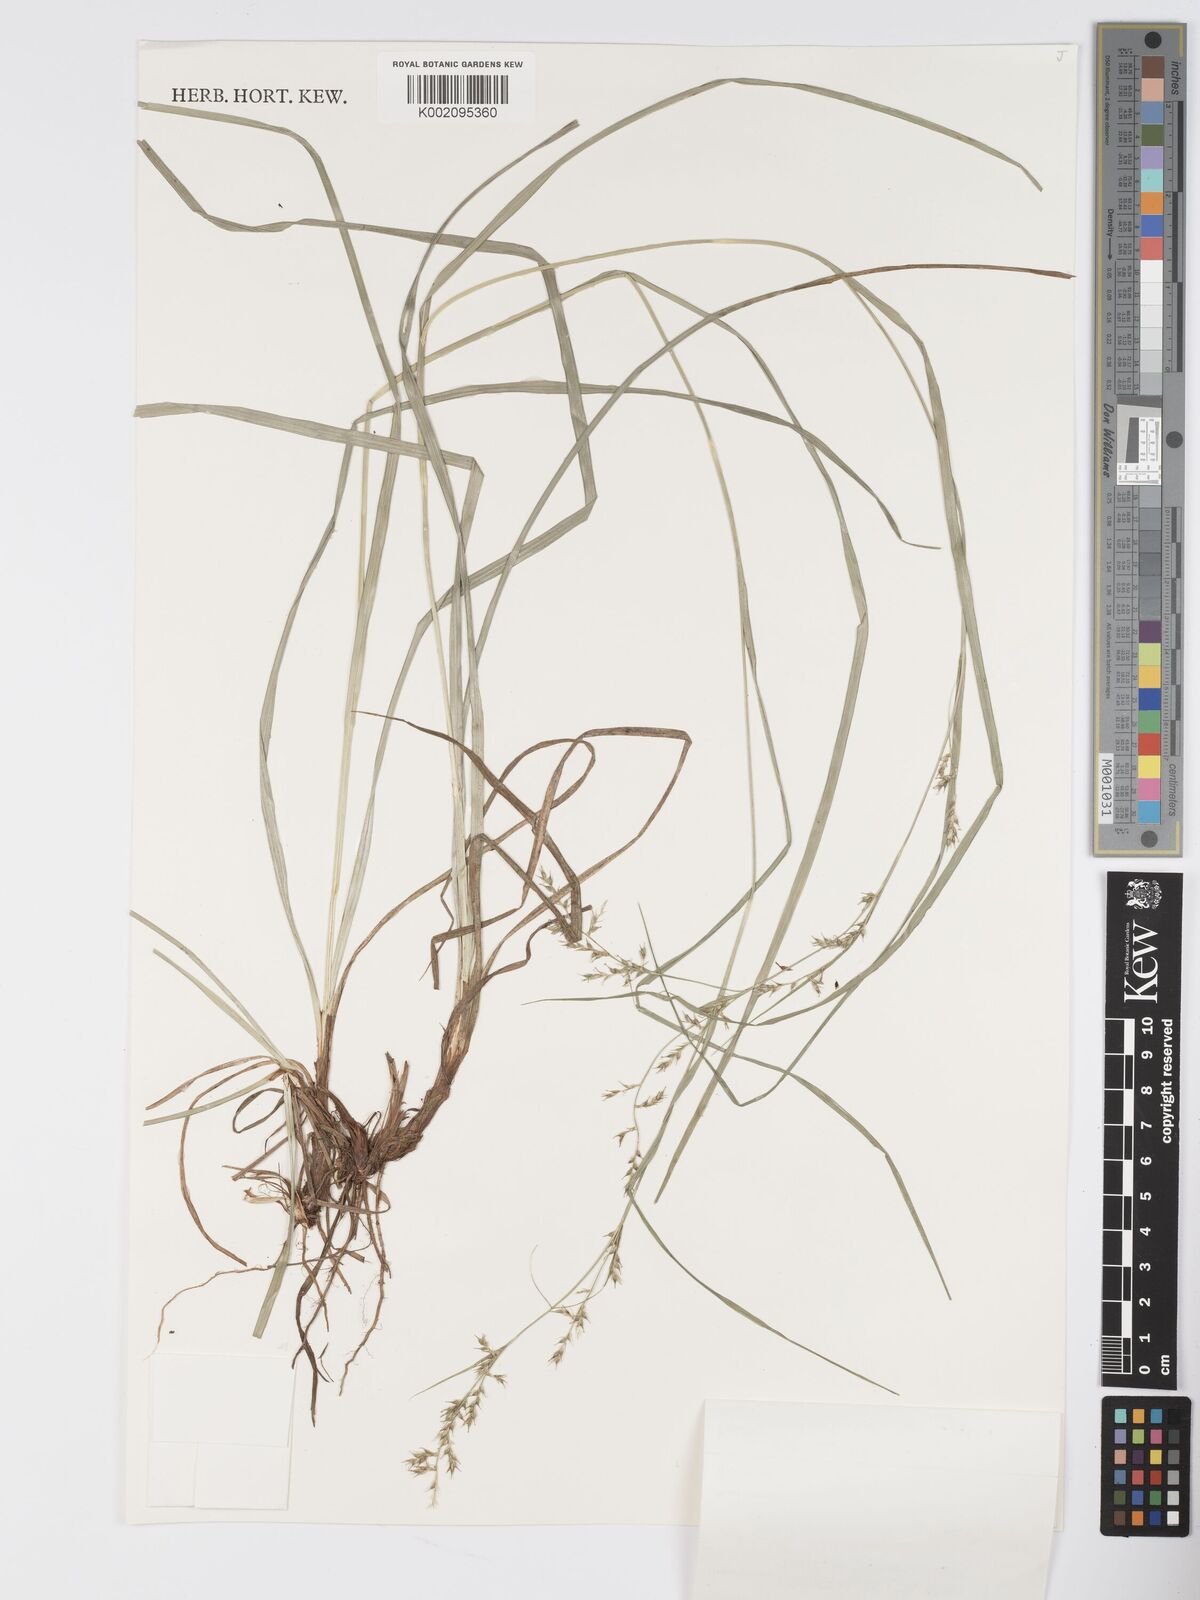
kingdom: Plantae
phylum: Tracheophyta
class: Liliopsida
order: Poales
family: Cyperaceae
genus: Carex
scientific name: Carex chlorosaccus
